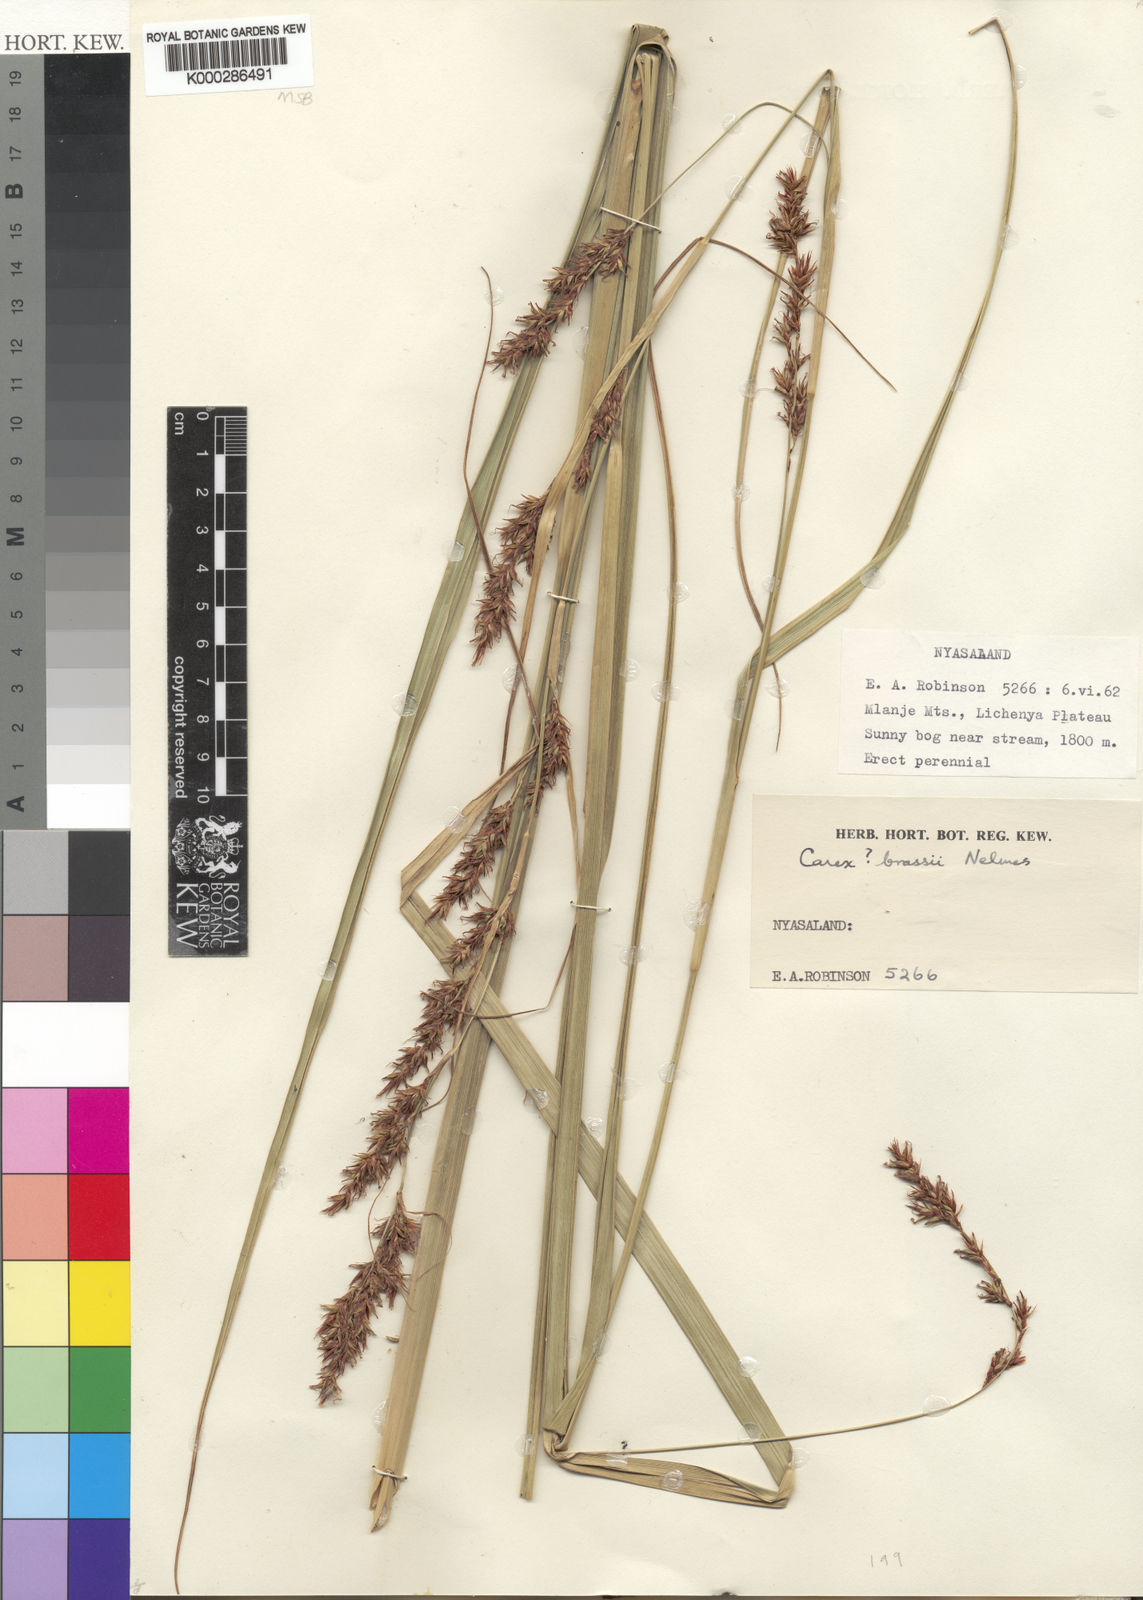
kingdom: Plantae
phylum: Tracheophyta
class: Liliopsida
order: Poales
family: Cyperaceae
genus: Carex
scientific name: Carex chlorosaccus
